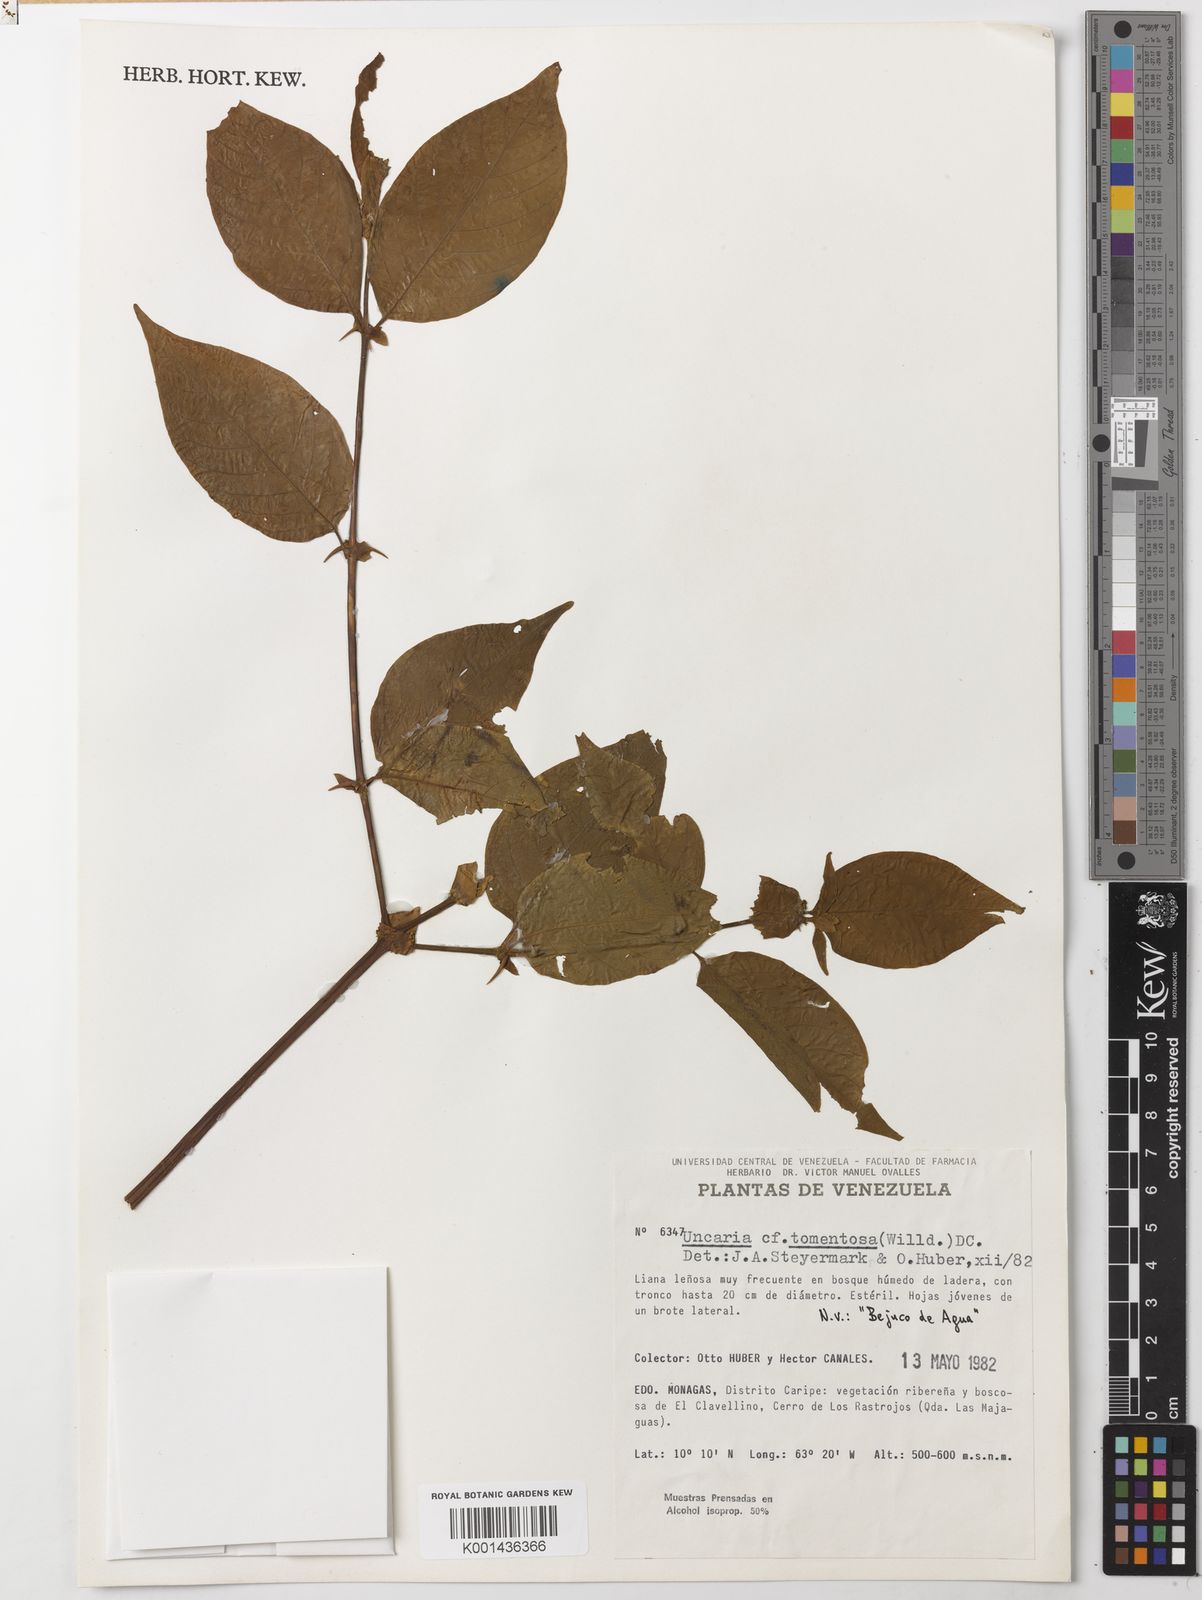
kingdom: Plantae
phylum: Tracheophyta
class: Magnoliopsida
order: Gentianales
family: Rubiaceae
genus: Uncaria
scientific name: Uncaria tomentosa
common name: Cat's-claw
